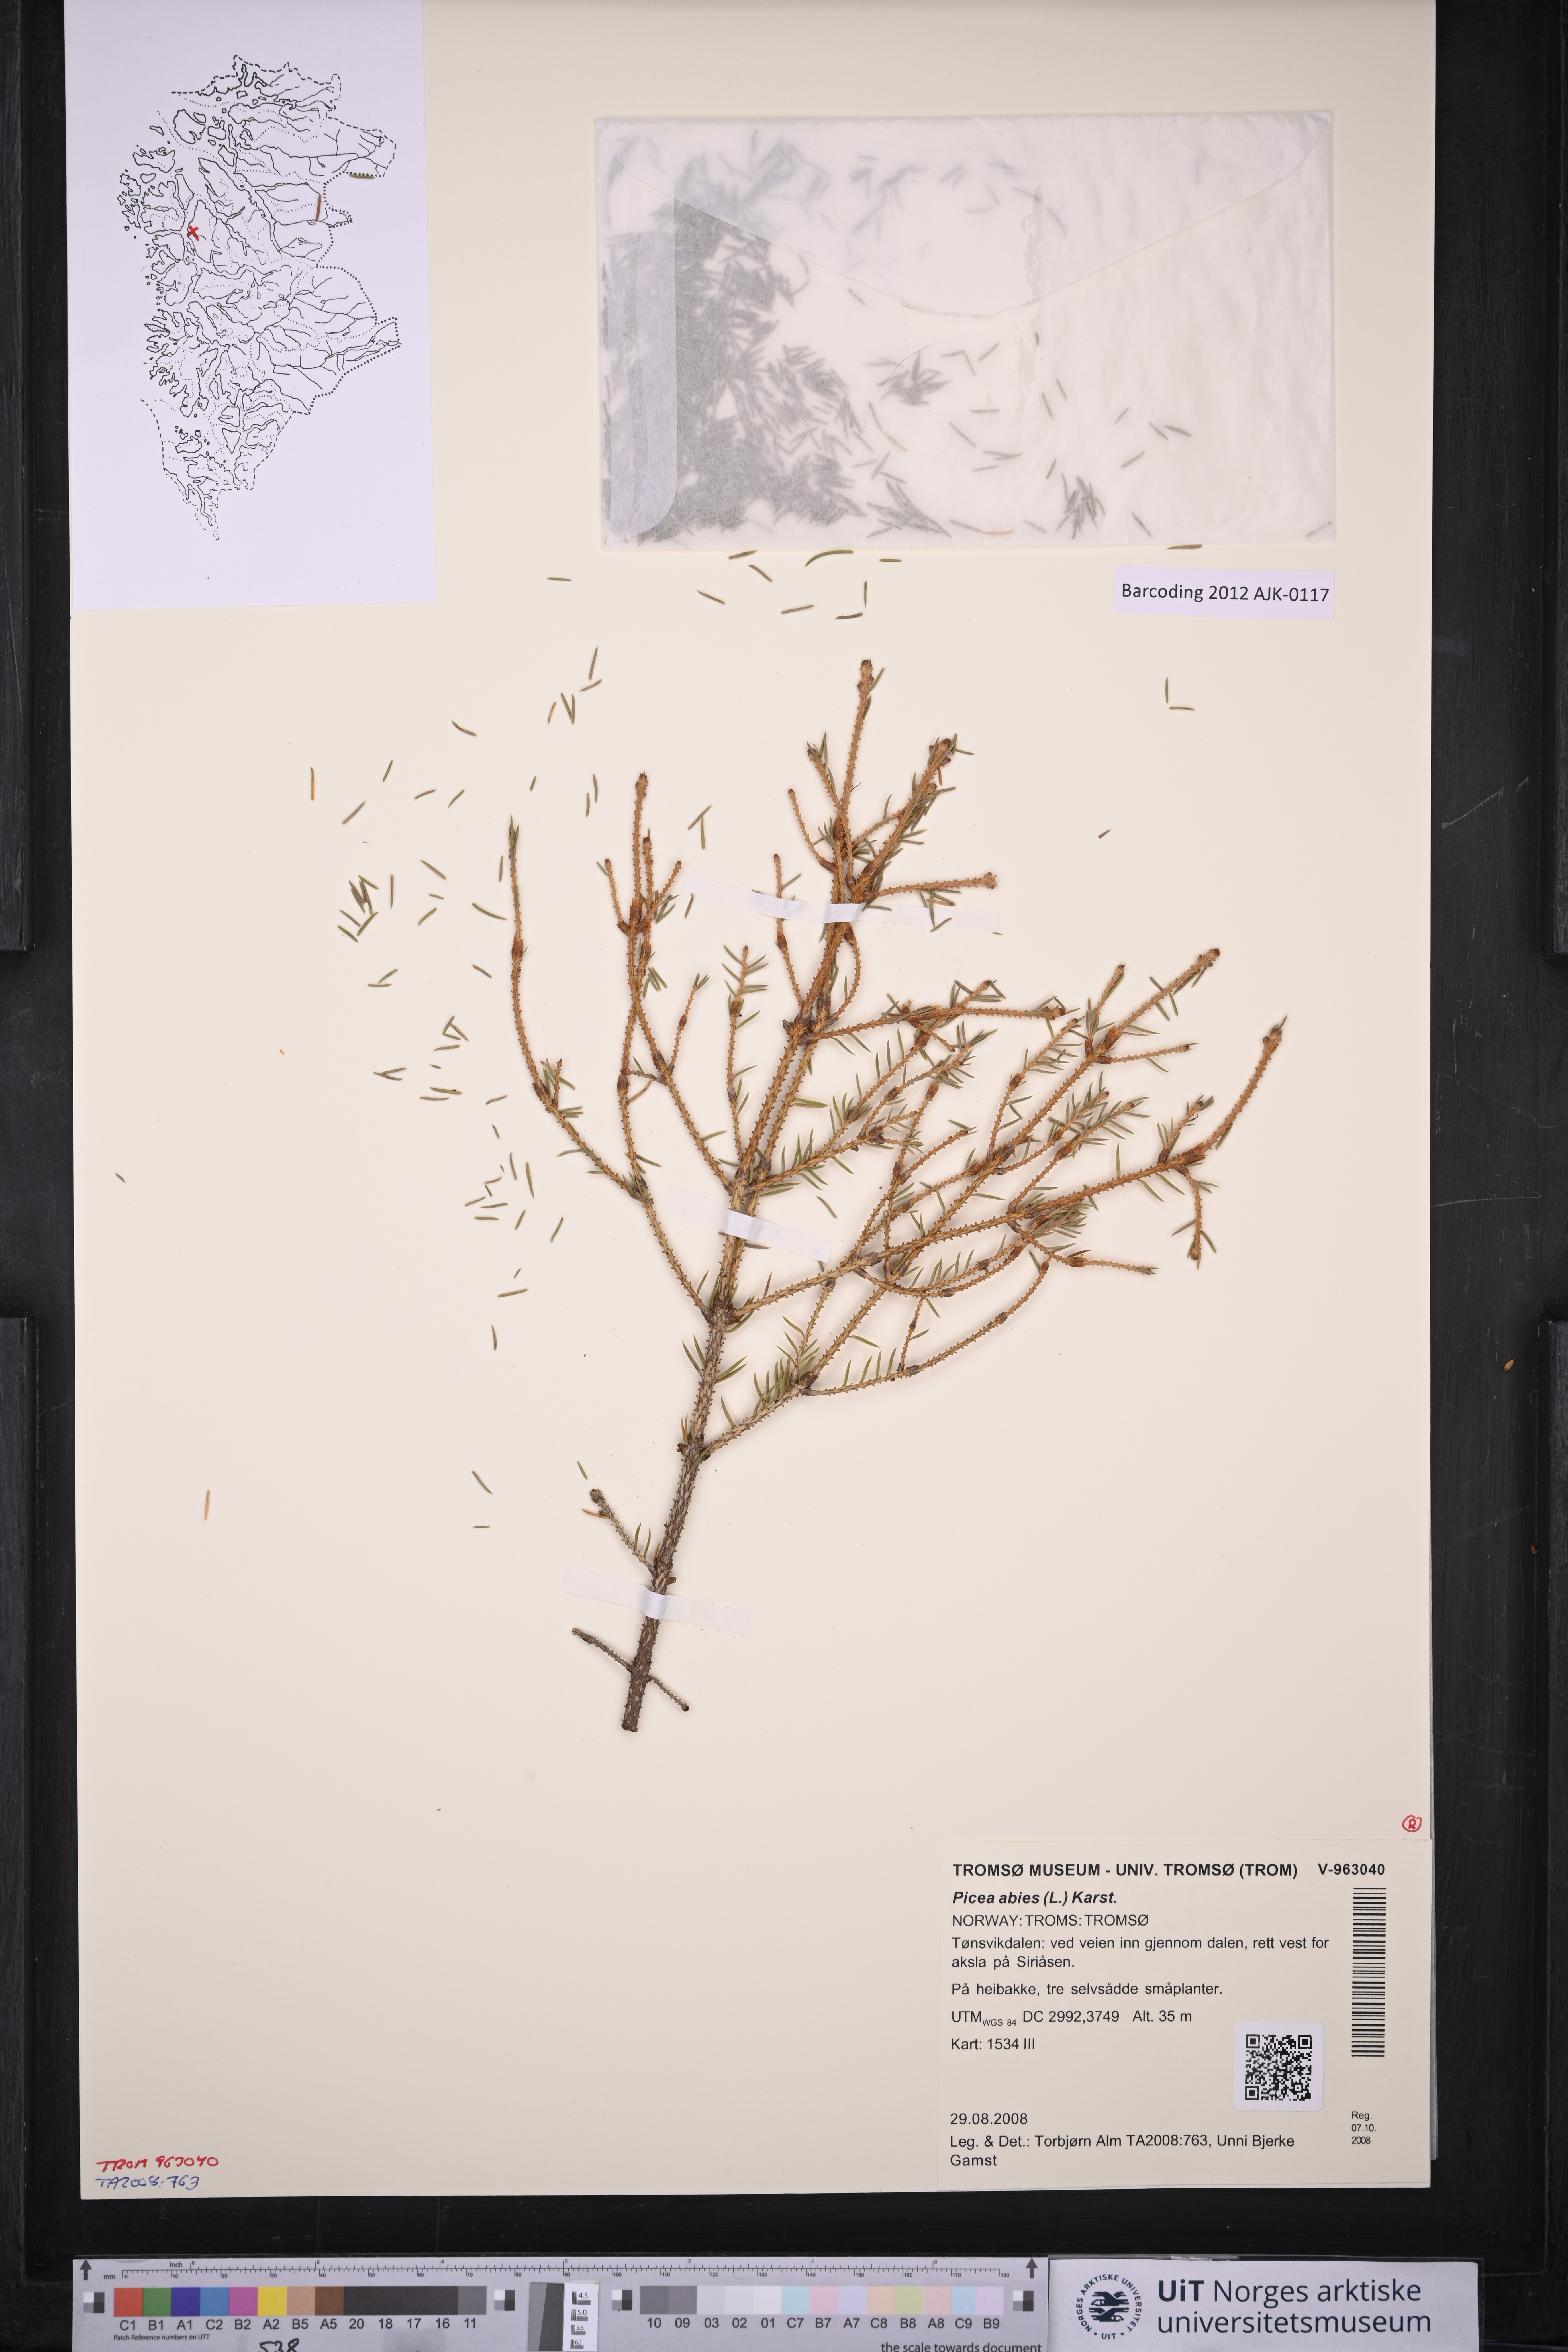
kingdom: Plantae
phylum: Tracheophyta
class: Pinopsida
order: Pinales
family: Pinaceae
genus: Picea
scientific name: Picea abies
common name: Norway spruce
